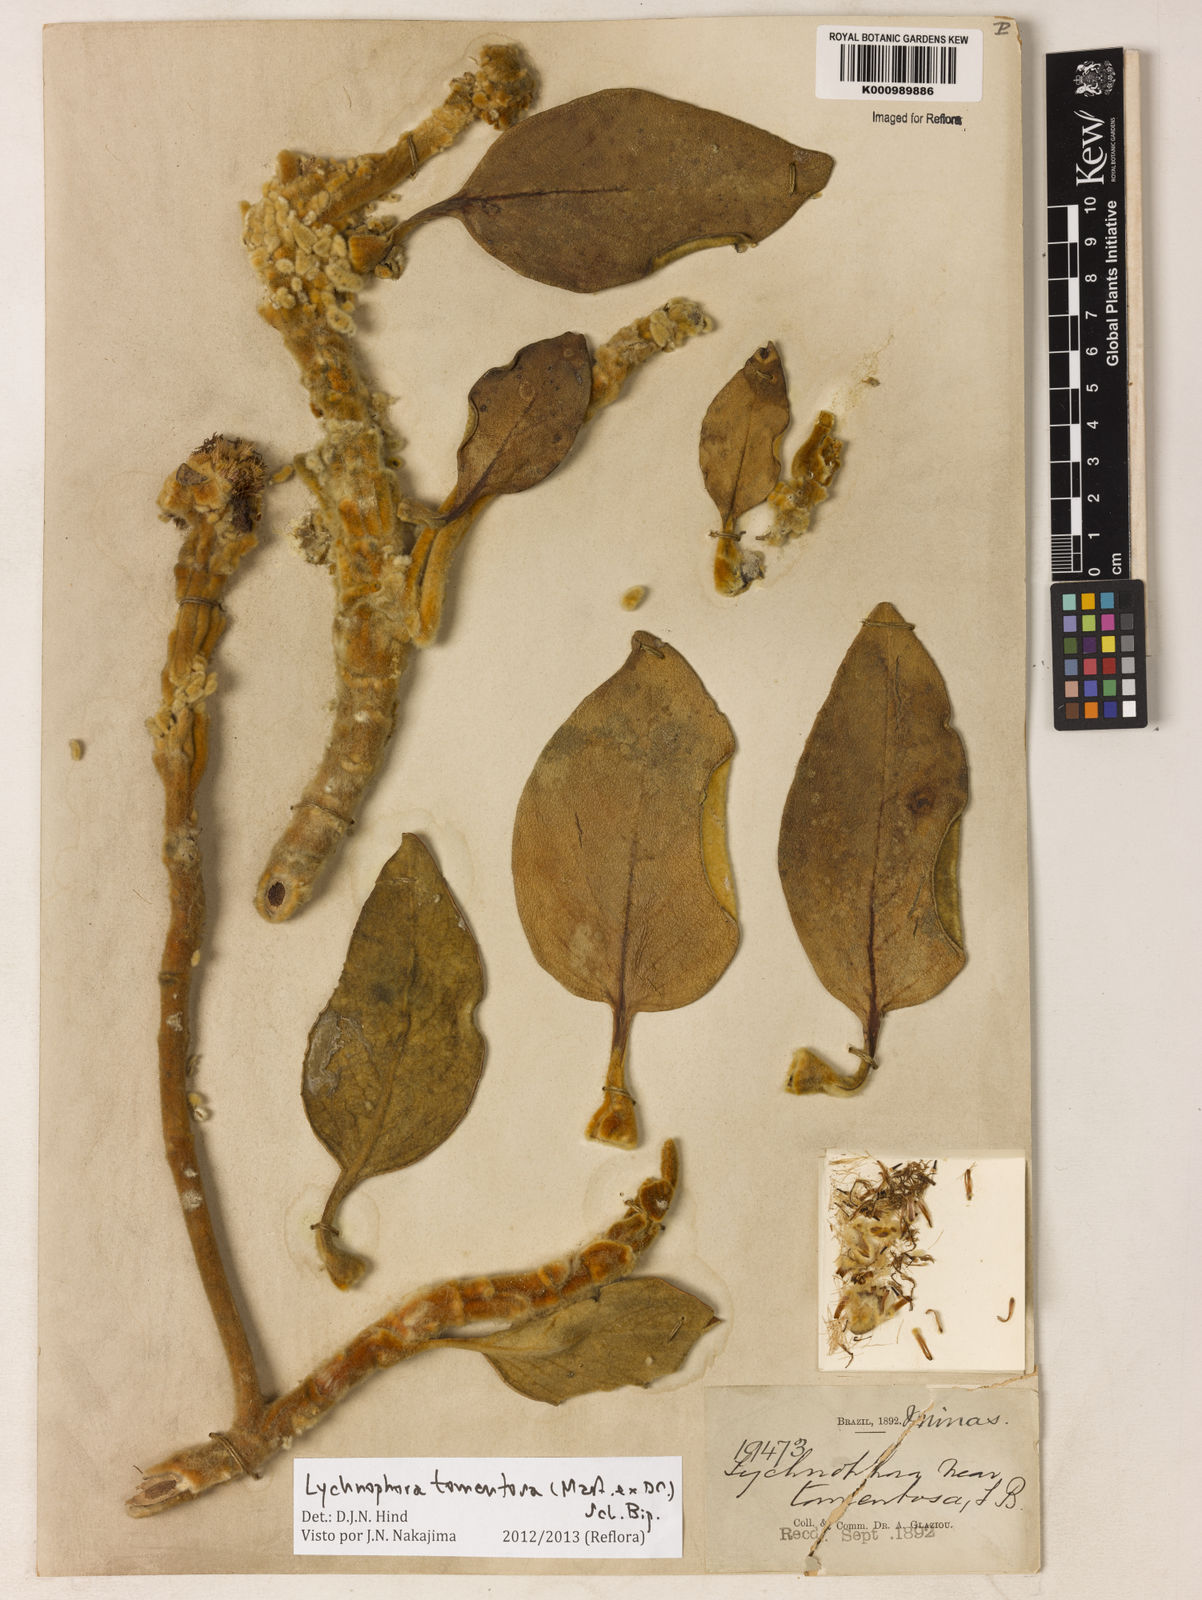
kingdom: Plantae
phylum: Tracheophyta
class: Magnoliopsida
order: Asterales
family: Asteraceae
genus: Lychnocephalus
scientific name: Lychnocephalus tomentosus
